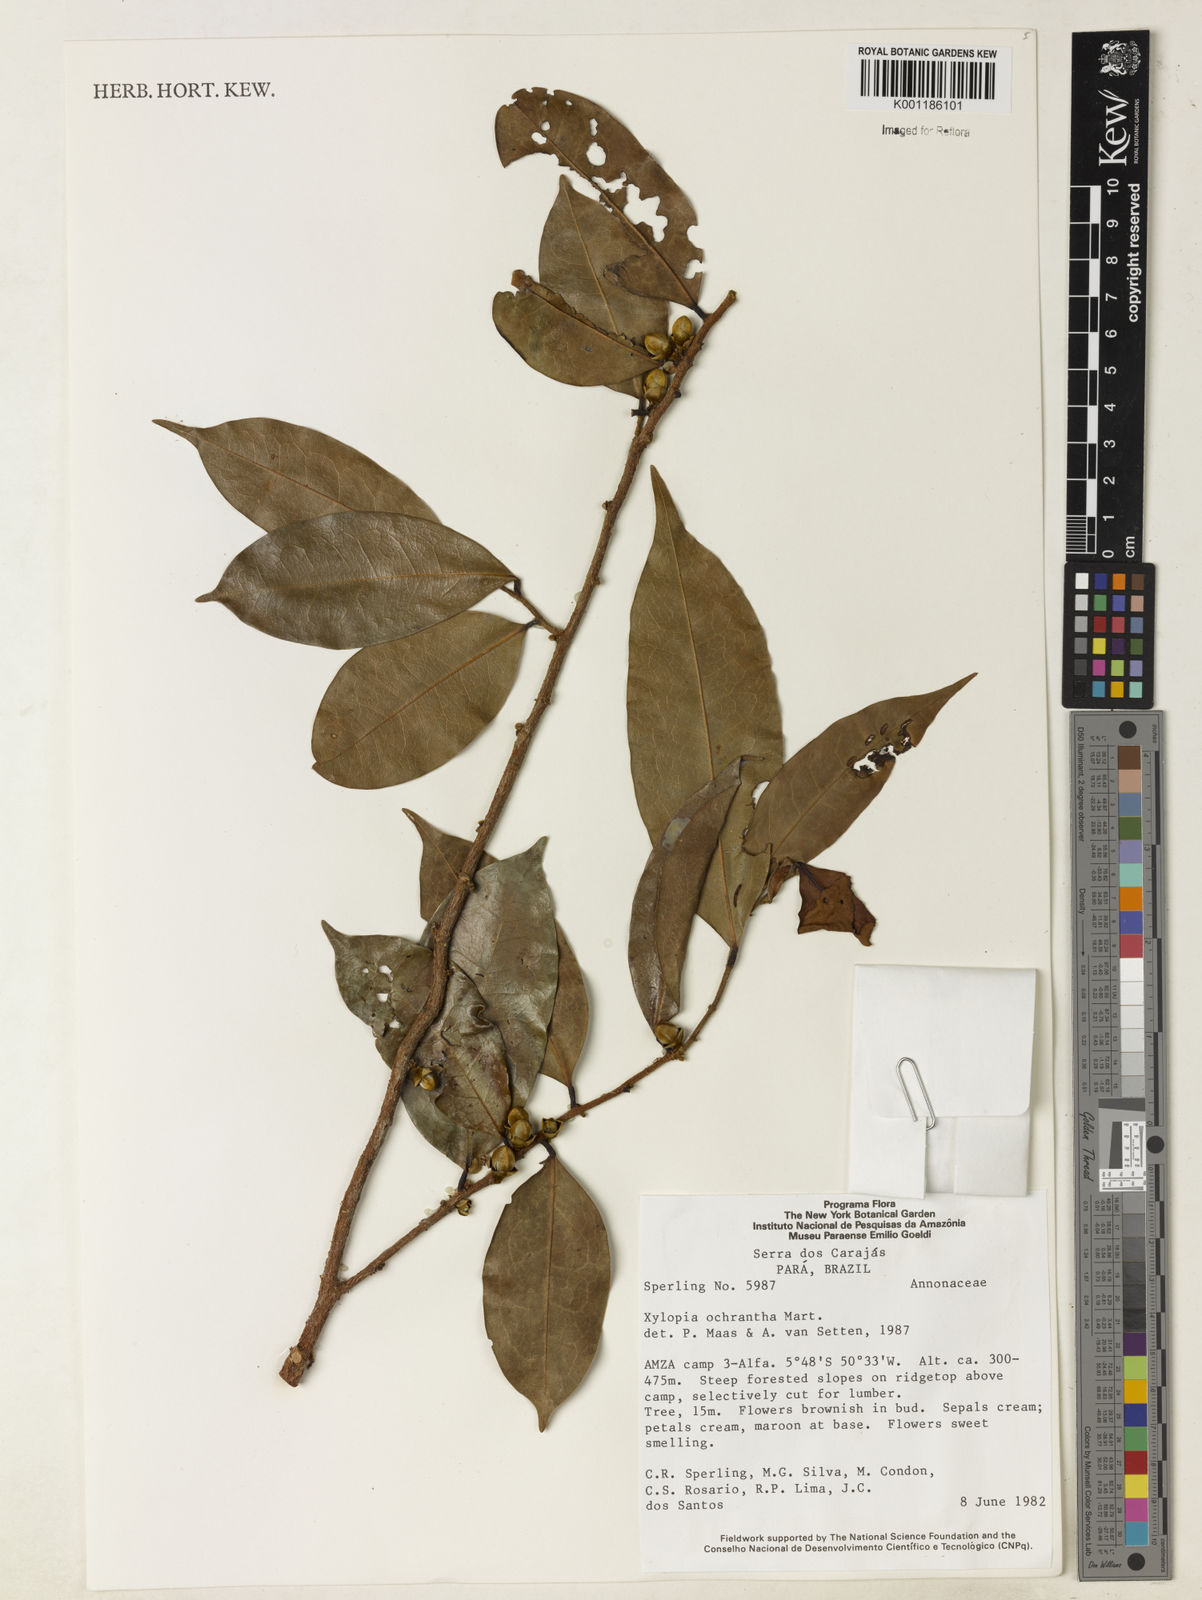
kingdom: Plantae
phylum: Tracheophyta
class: Magnoliopsida
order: Magnoliales
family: Annonaceae
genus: Xylopia
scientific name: Xylopia ochrantha
